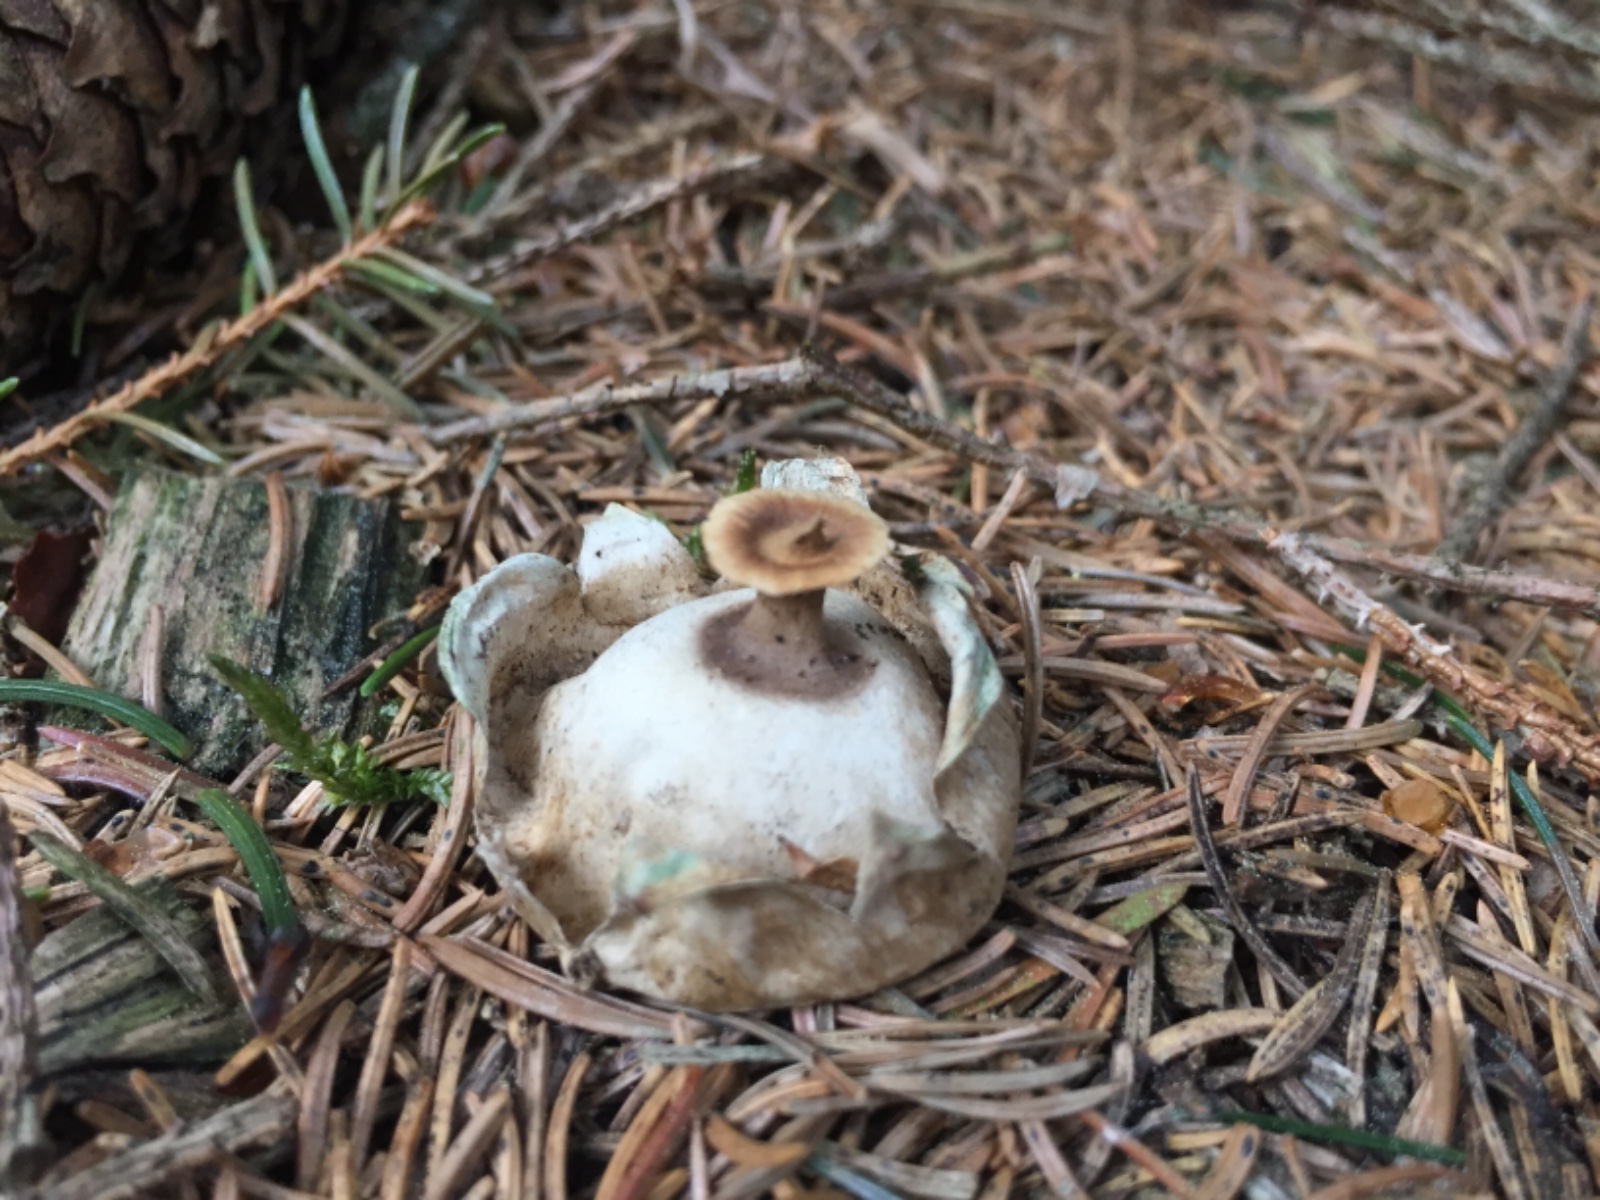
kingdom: Fungi
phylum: Basidiomycota
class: Agaricomycetes
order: Geastrales
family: Geastraceae
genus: Geastrum
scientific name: Geastrum pectinatum
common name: stilket stjernebold
